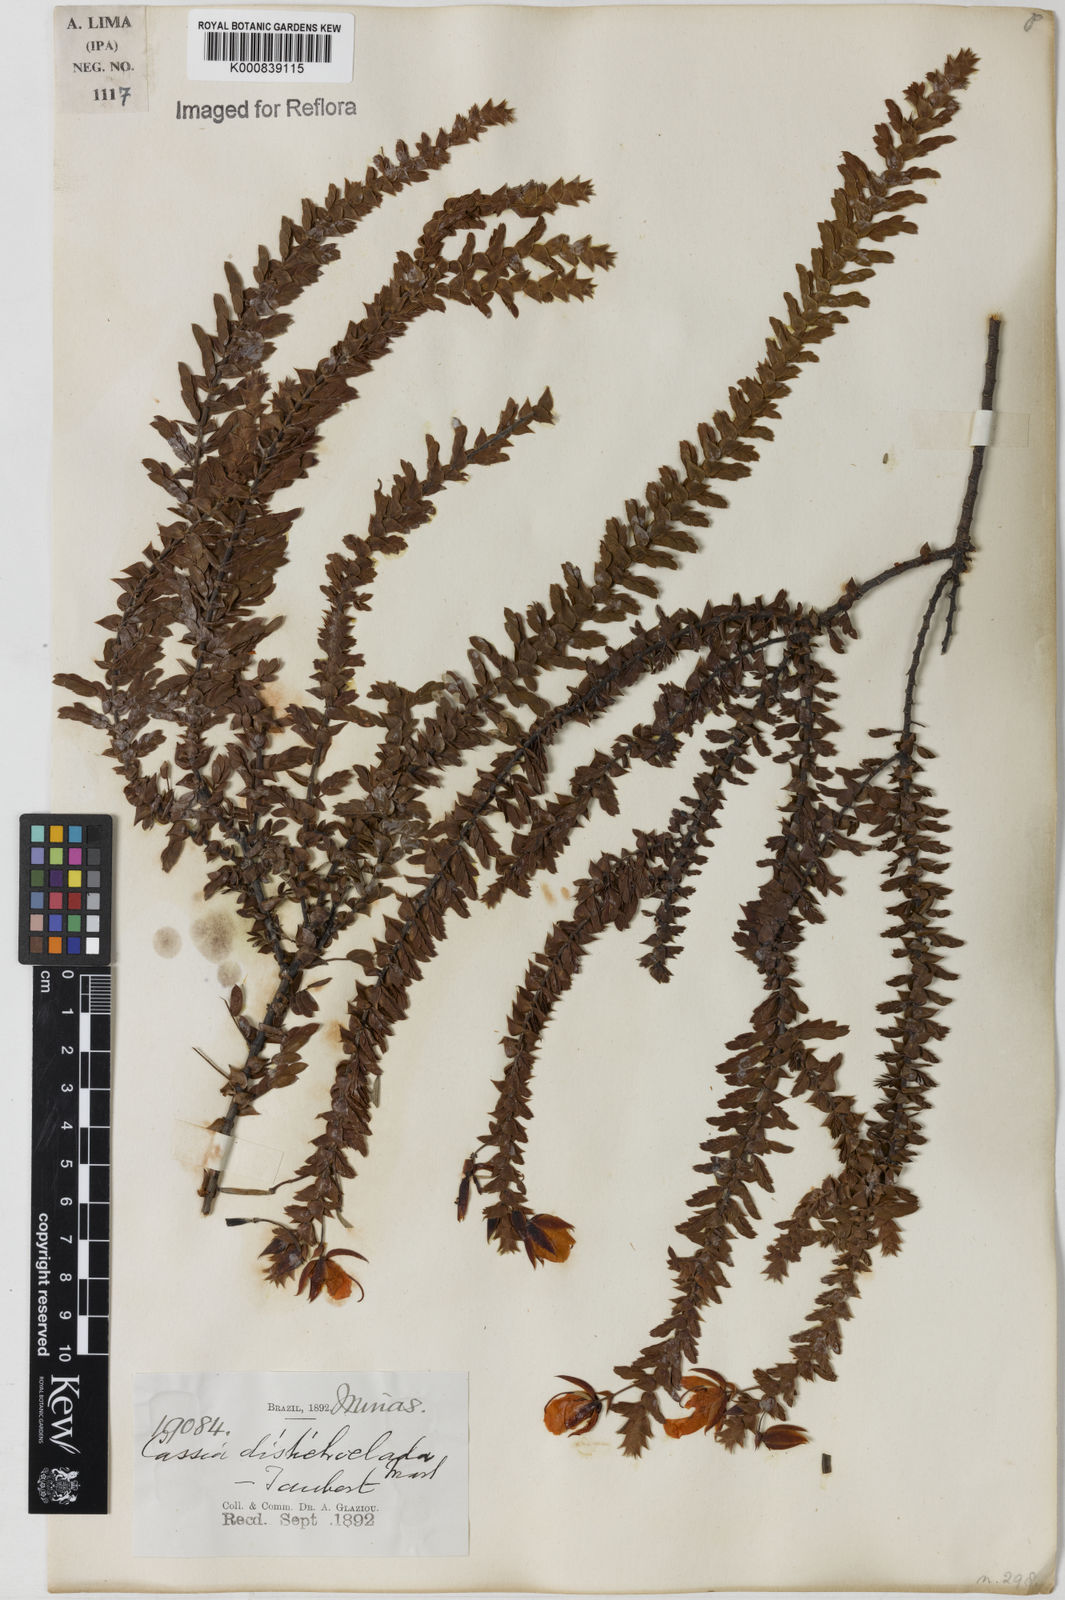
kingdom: Plantae
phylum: Tracheophyta
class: Magnoliopsida
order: Fabales
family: Fabaceae
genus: Chamaecrista
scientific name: Chamaecrista distichoclada
